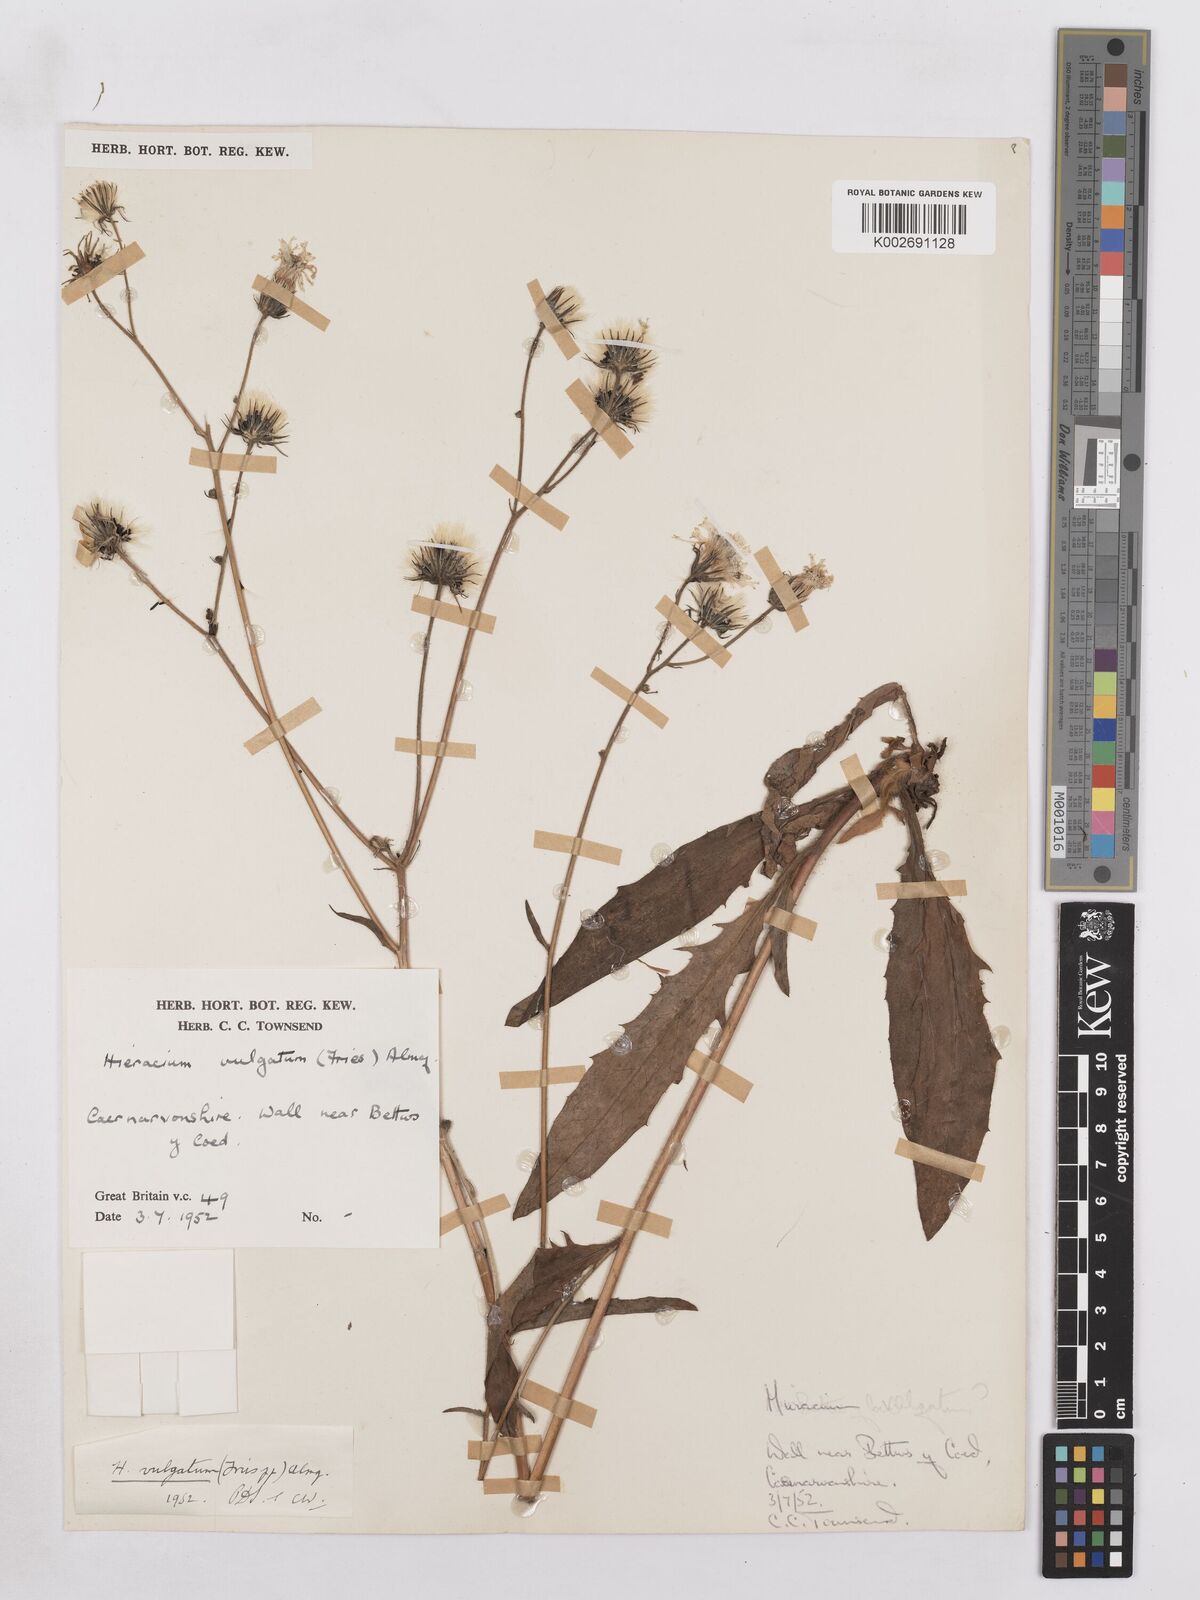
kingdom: Plantae
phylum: Tracheophyta
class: Magnoliopsida
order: Asterales
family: Asteraceae
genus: Hieracium
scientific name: Hieracium lachenalii
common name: Common hawkweed
